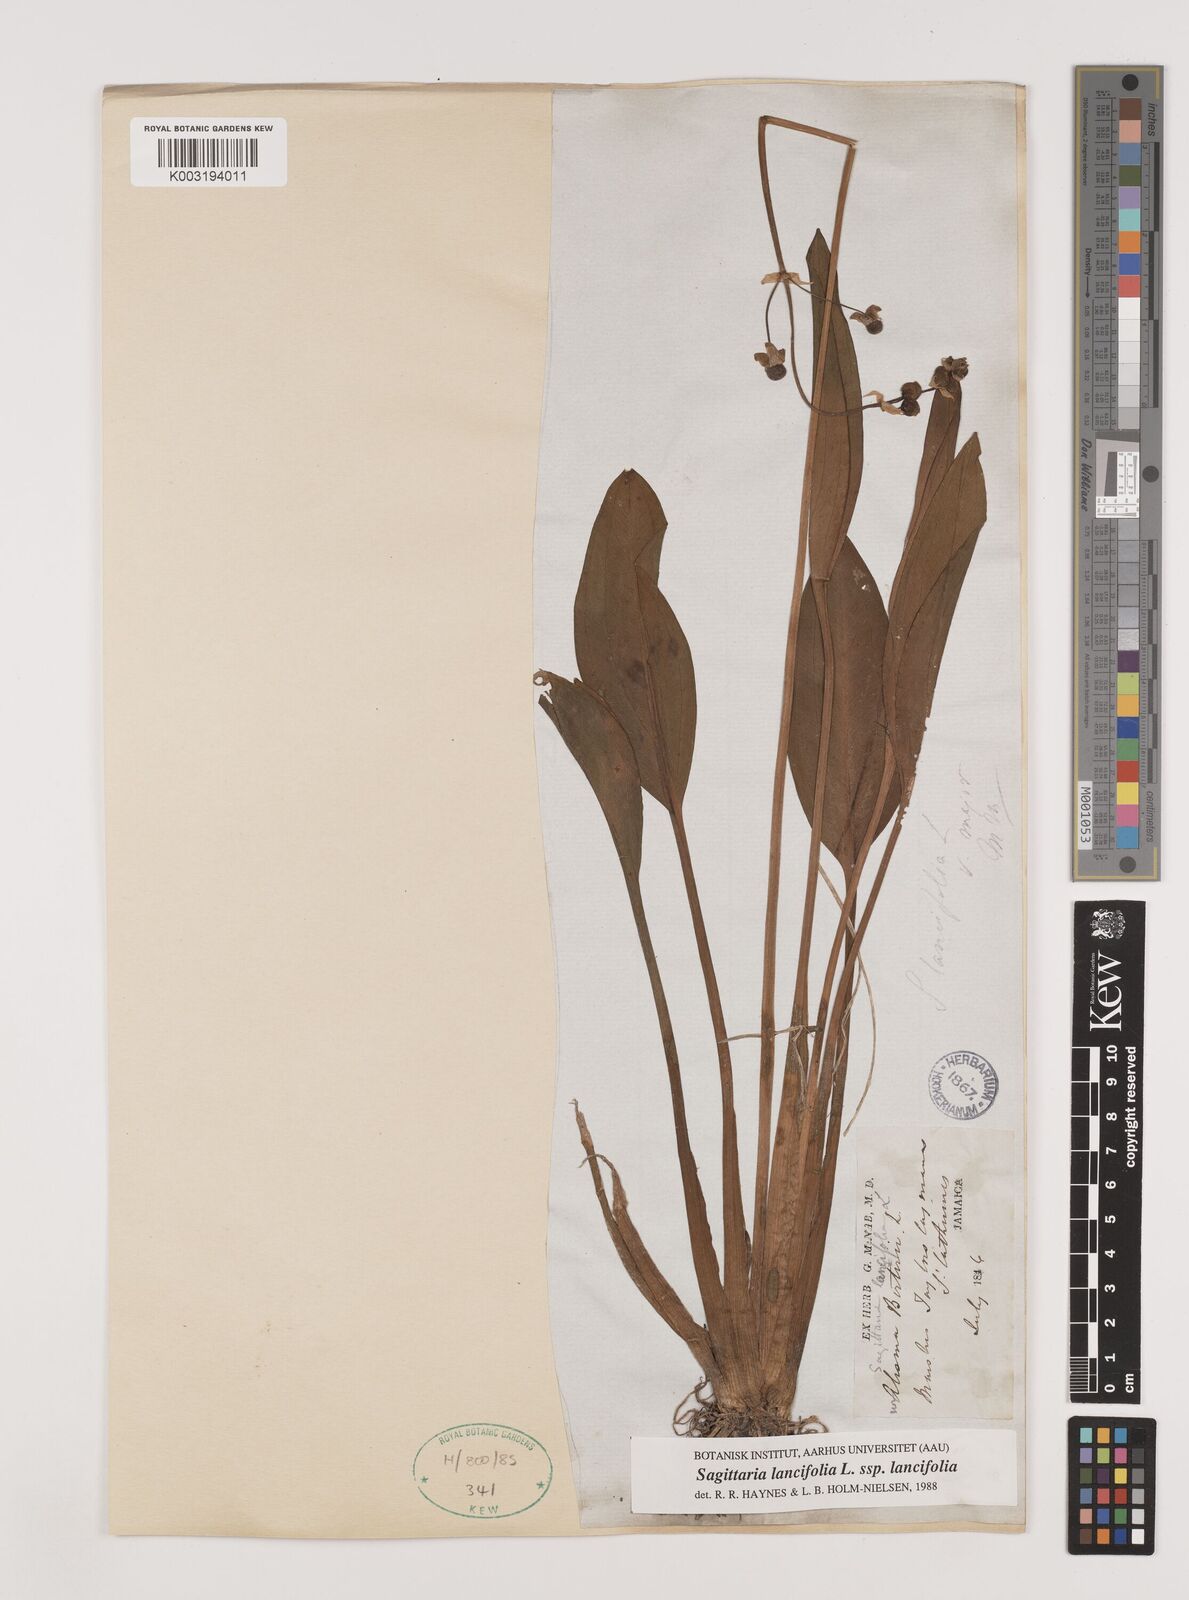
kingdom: Plantae
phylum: Tracheophyta
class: Liliopsida
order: Alismatales
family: Alismataceae
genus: Sagittaria
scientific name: Sagittaria lancifolia
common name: Lance-leaf arrowhead
